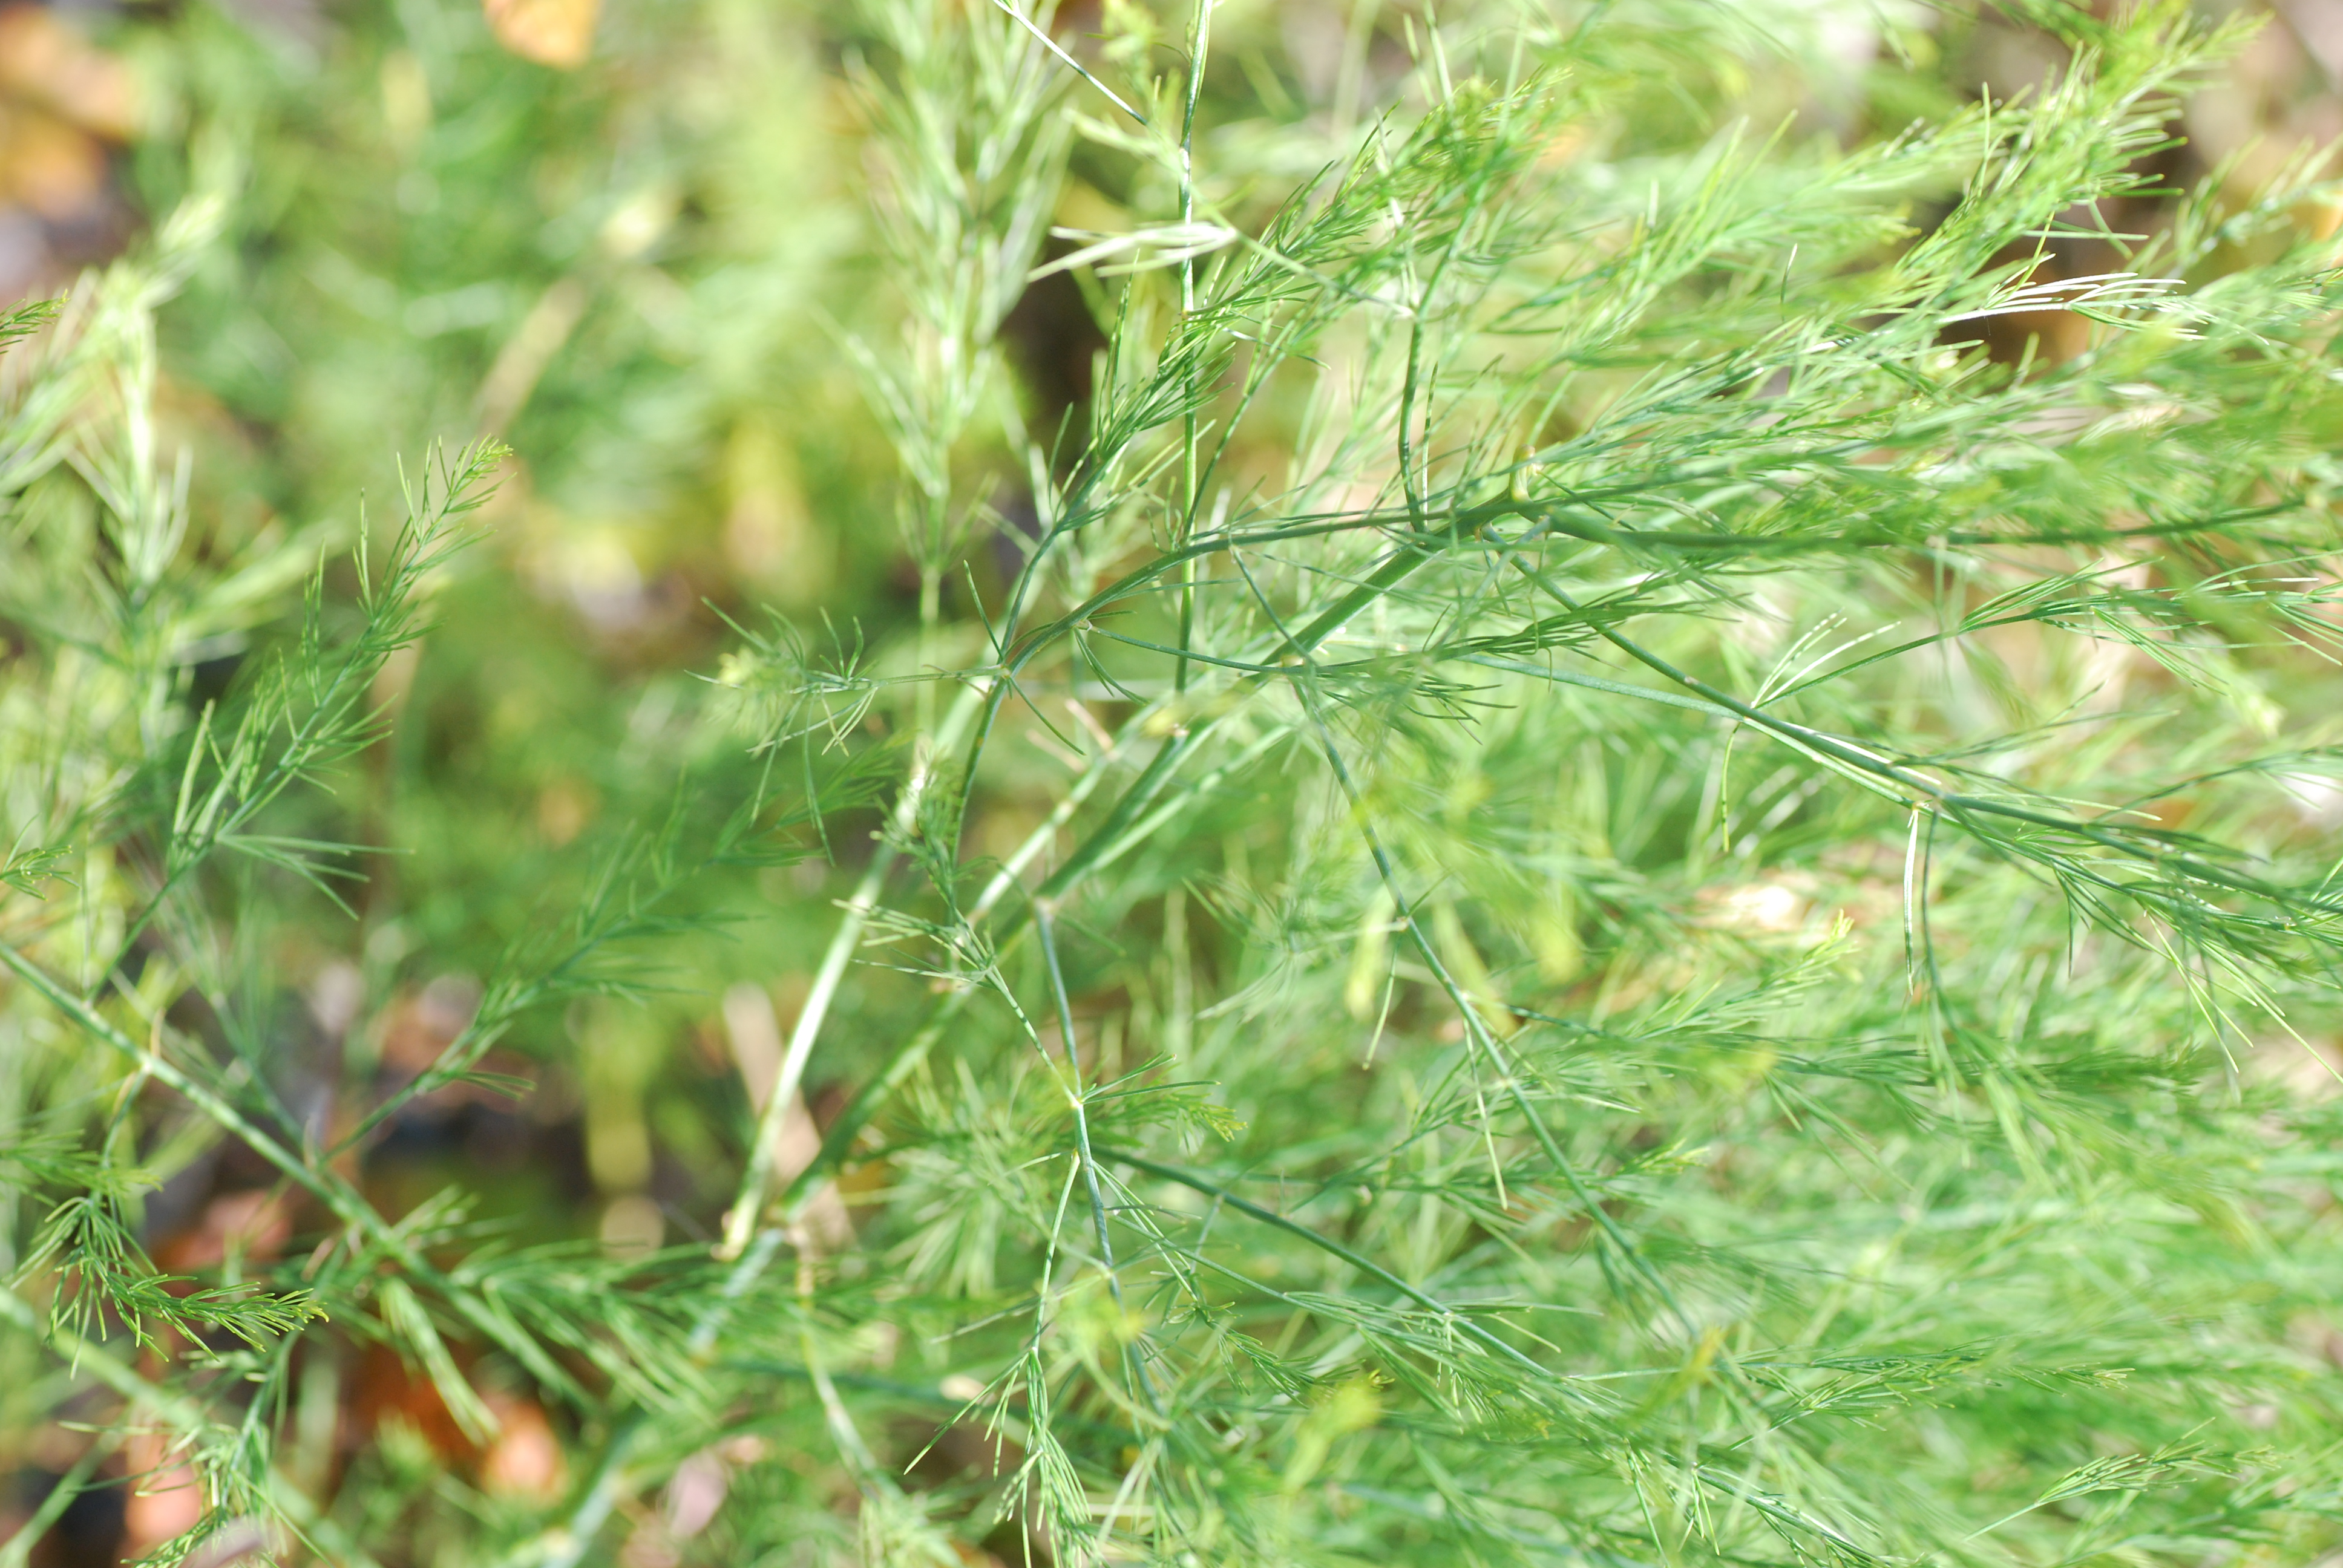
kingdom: Plantae
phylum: Tracheophyta
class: Liliopsida
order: Asparagales
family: Asparagaceae
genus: Asparagus
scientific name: Asparagus officinalis
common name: Garden asparagus
